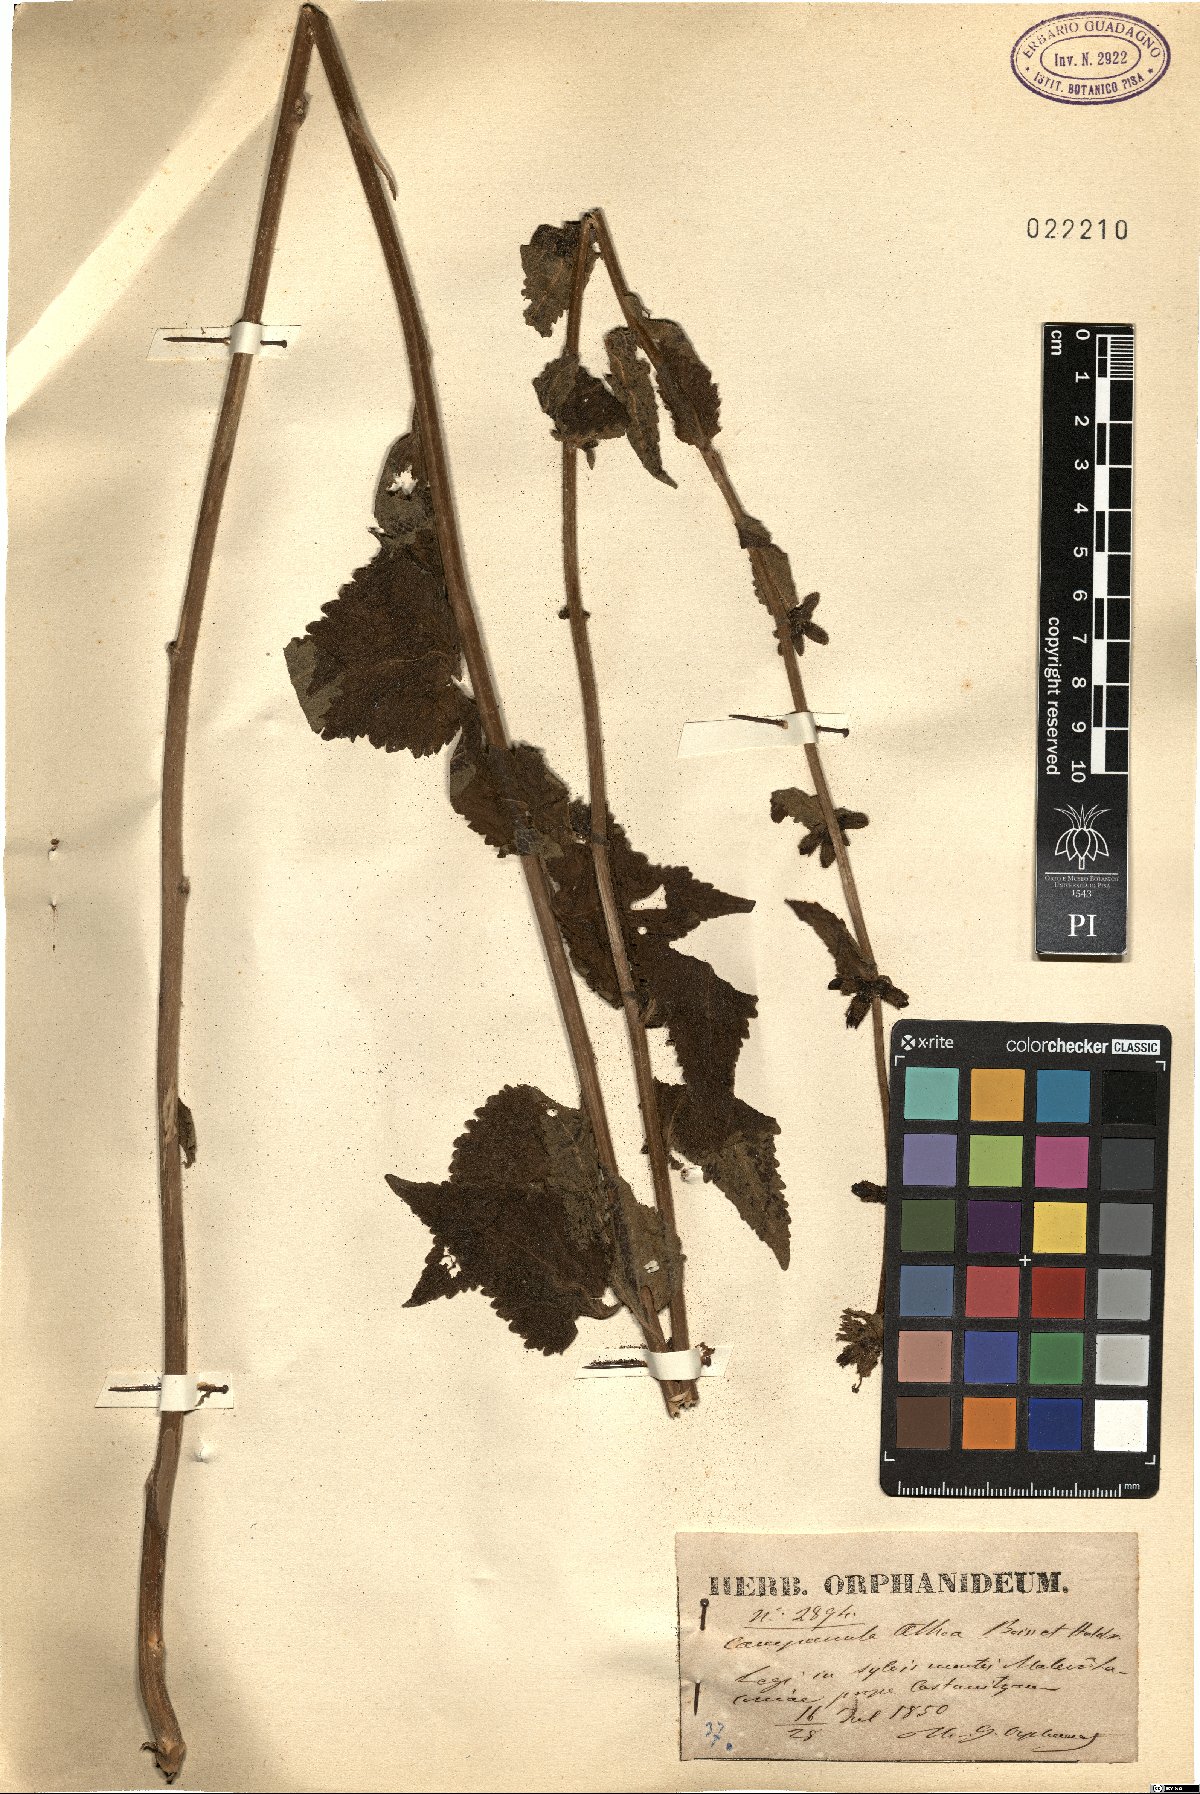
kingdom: Plantae
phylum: Tracheophyta
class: Magnoliopsida
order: Asterales
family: Campanulaceae
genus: Campanula
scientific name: Campanula trachelium
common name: Nettle-leaved bellflower
